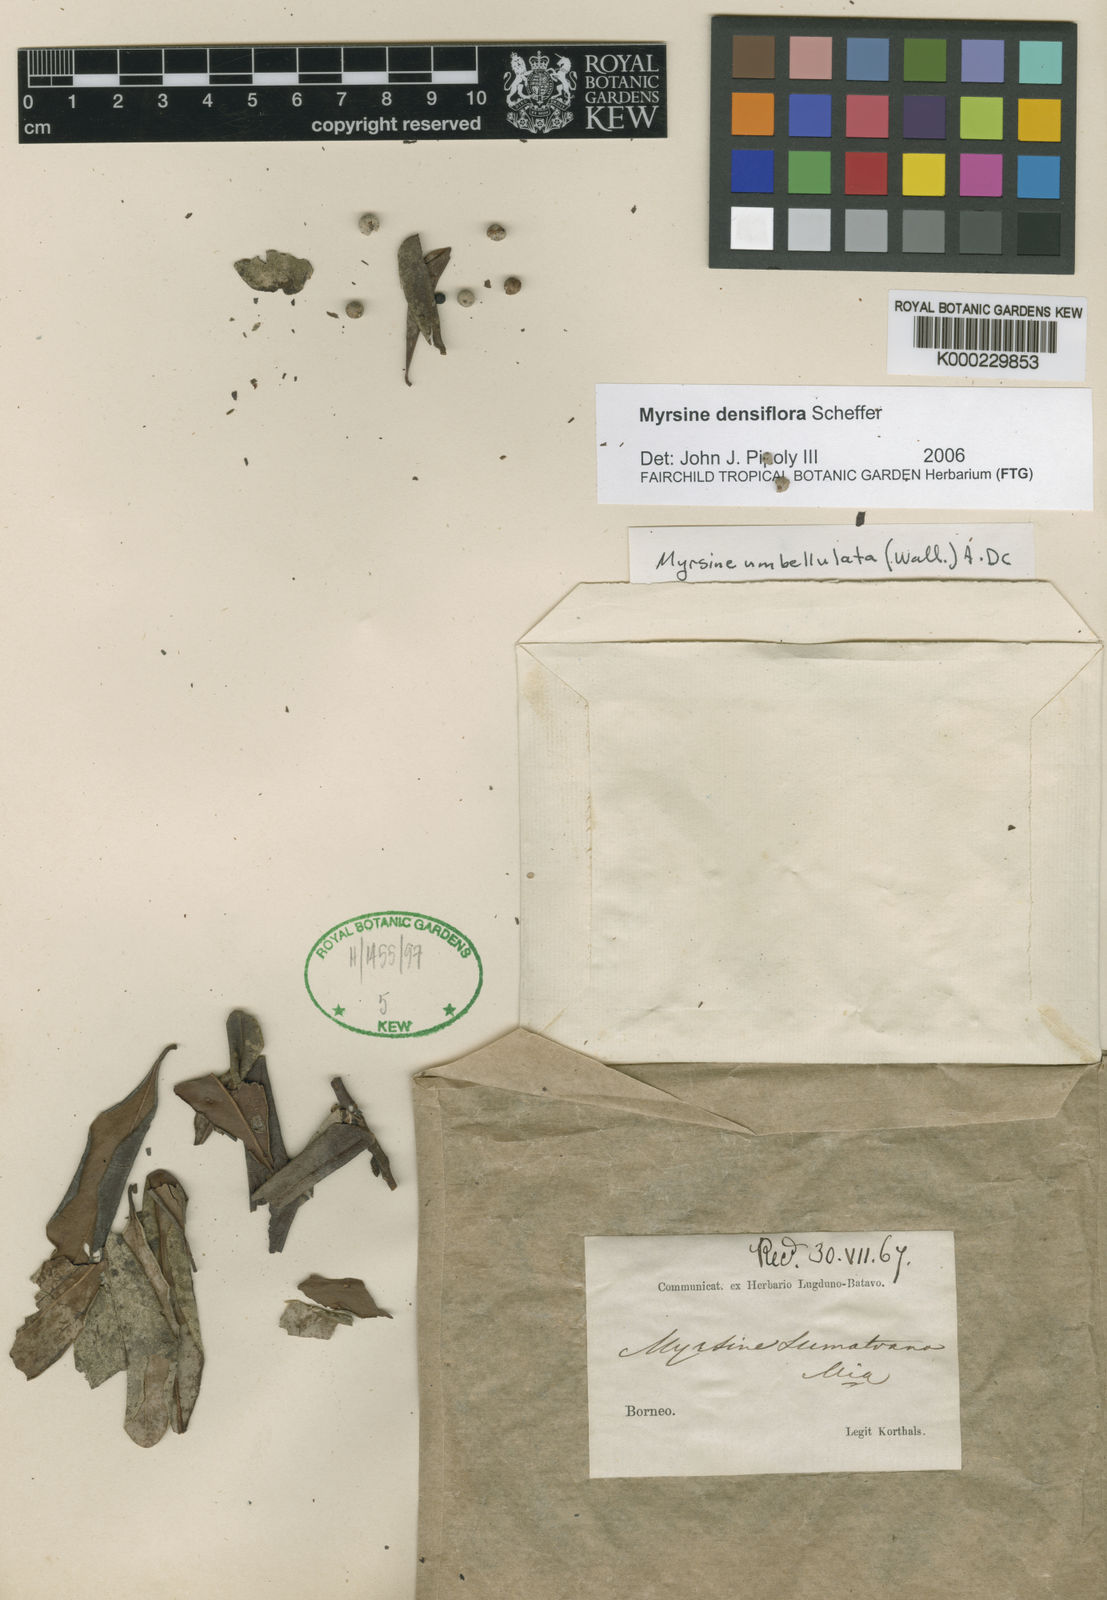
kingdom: Plantae
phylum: Tracheophyta
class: Magnoliopsida
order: Ericales
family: Primulaceae
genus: Myrsine
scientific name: Myrsine densiflora
